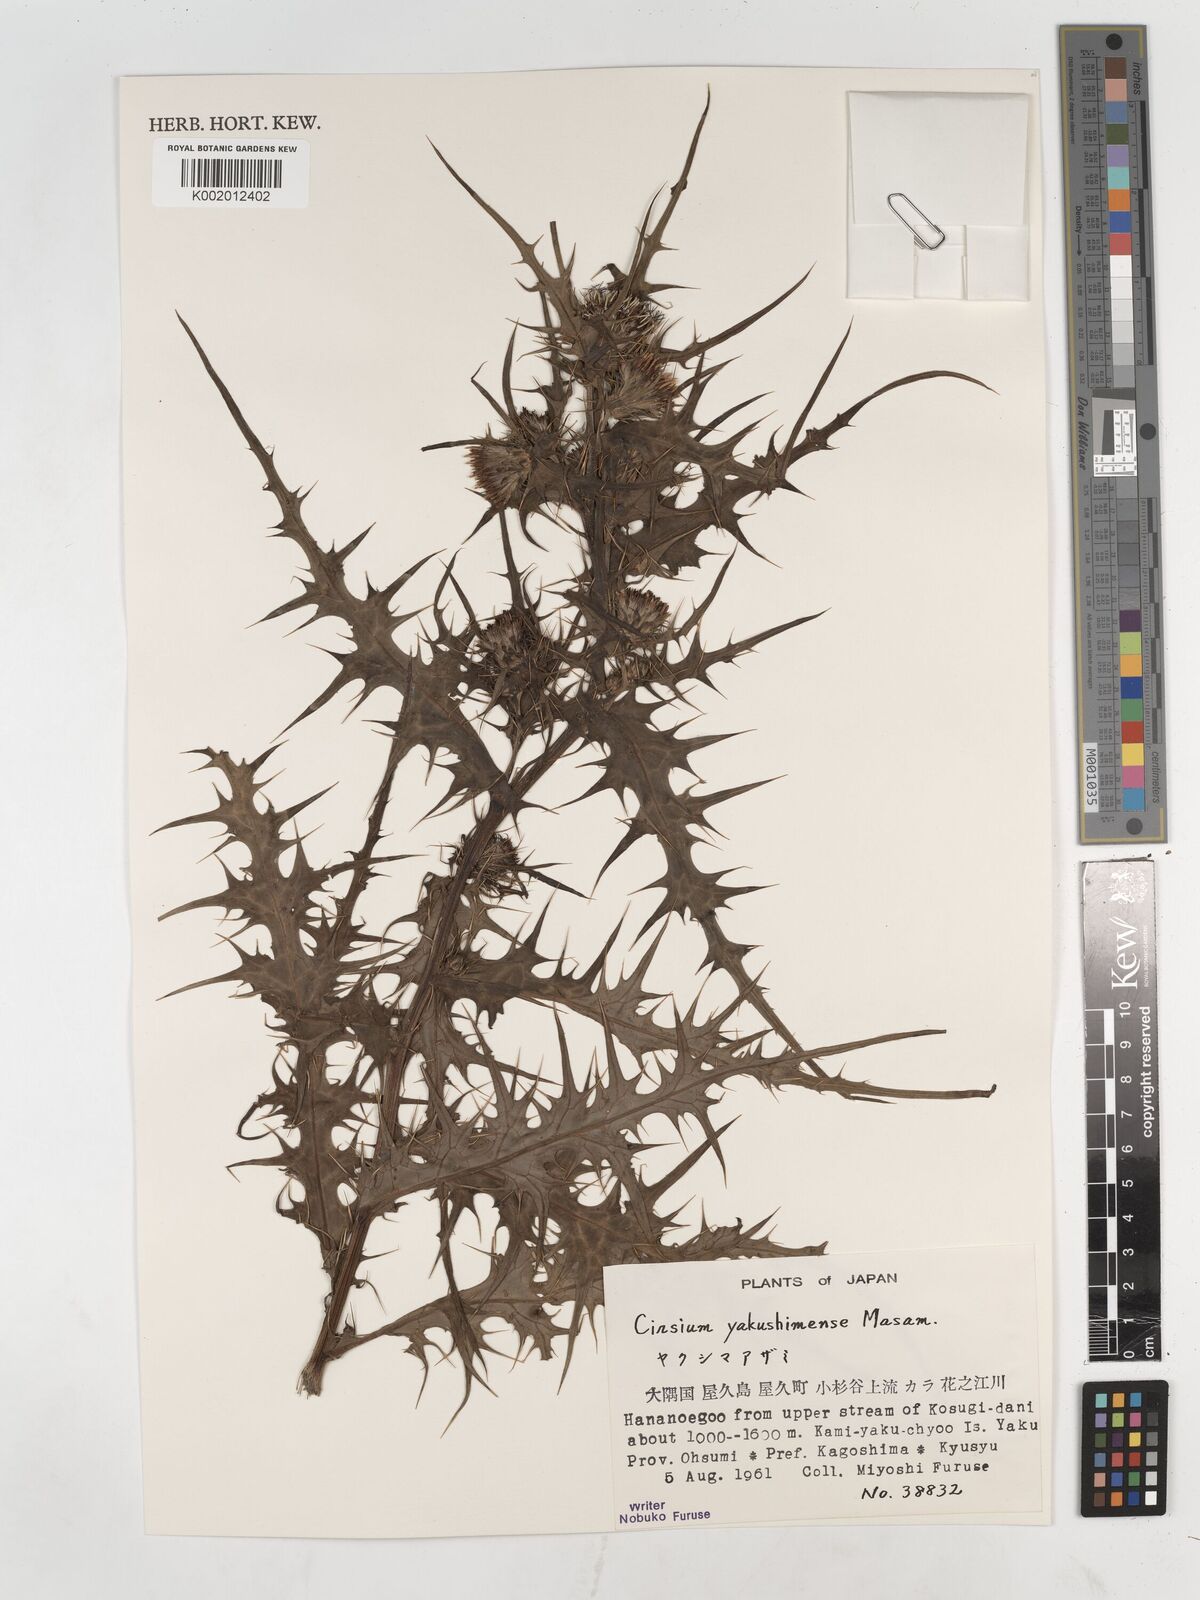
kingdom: Plantae
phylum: Tracheophyta
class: Magnoliopsida
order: Asterales
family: Asteraceae
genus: Cirsium
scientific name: Cirsium yakusimense
